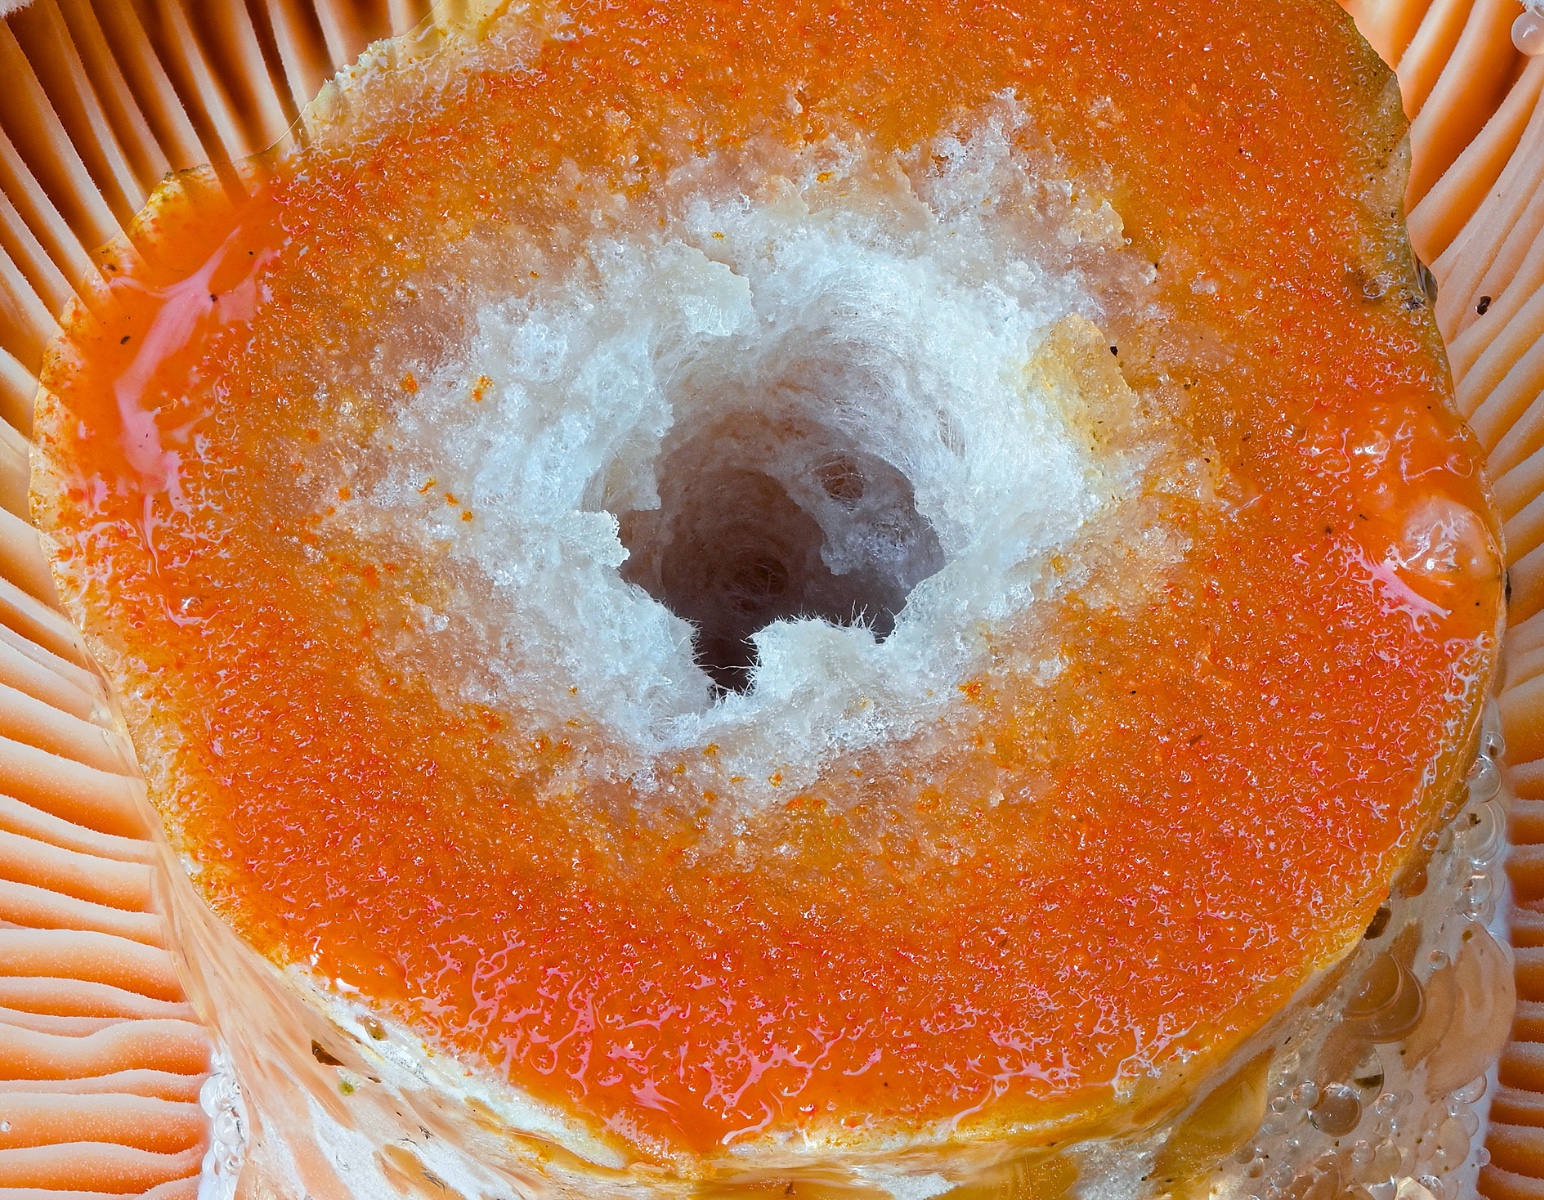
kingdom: Fungi
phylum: Basidiomycota
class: Agaricomycetes
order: Russulales
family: Russulaceae
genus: Lactarius
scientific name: Lactarius deliciosus
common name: velsmagende mælkehat
